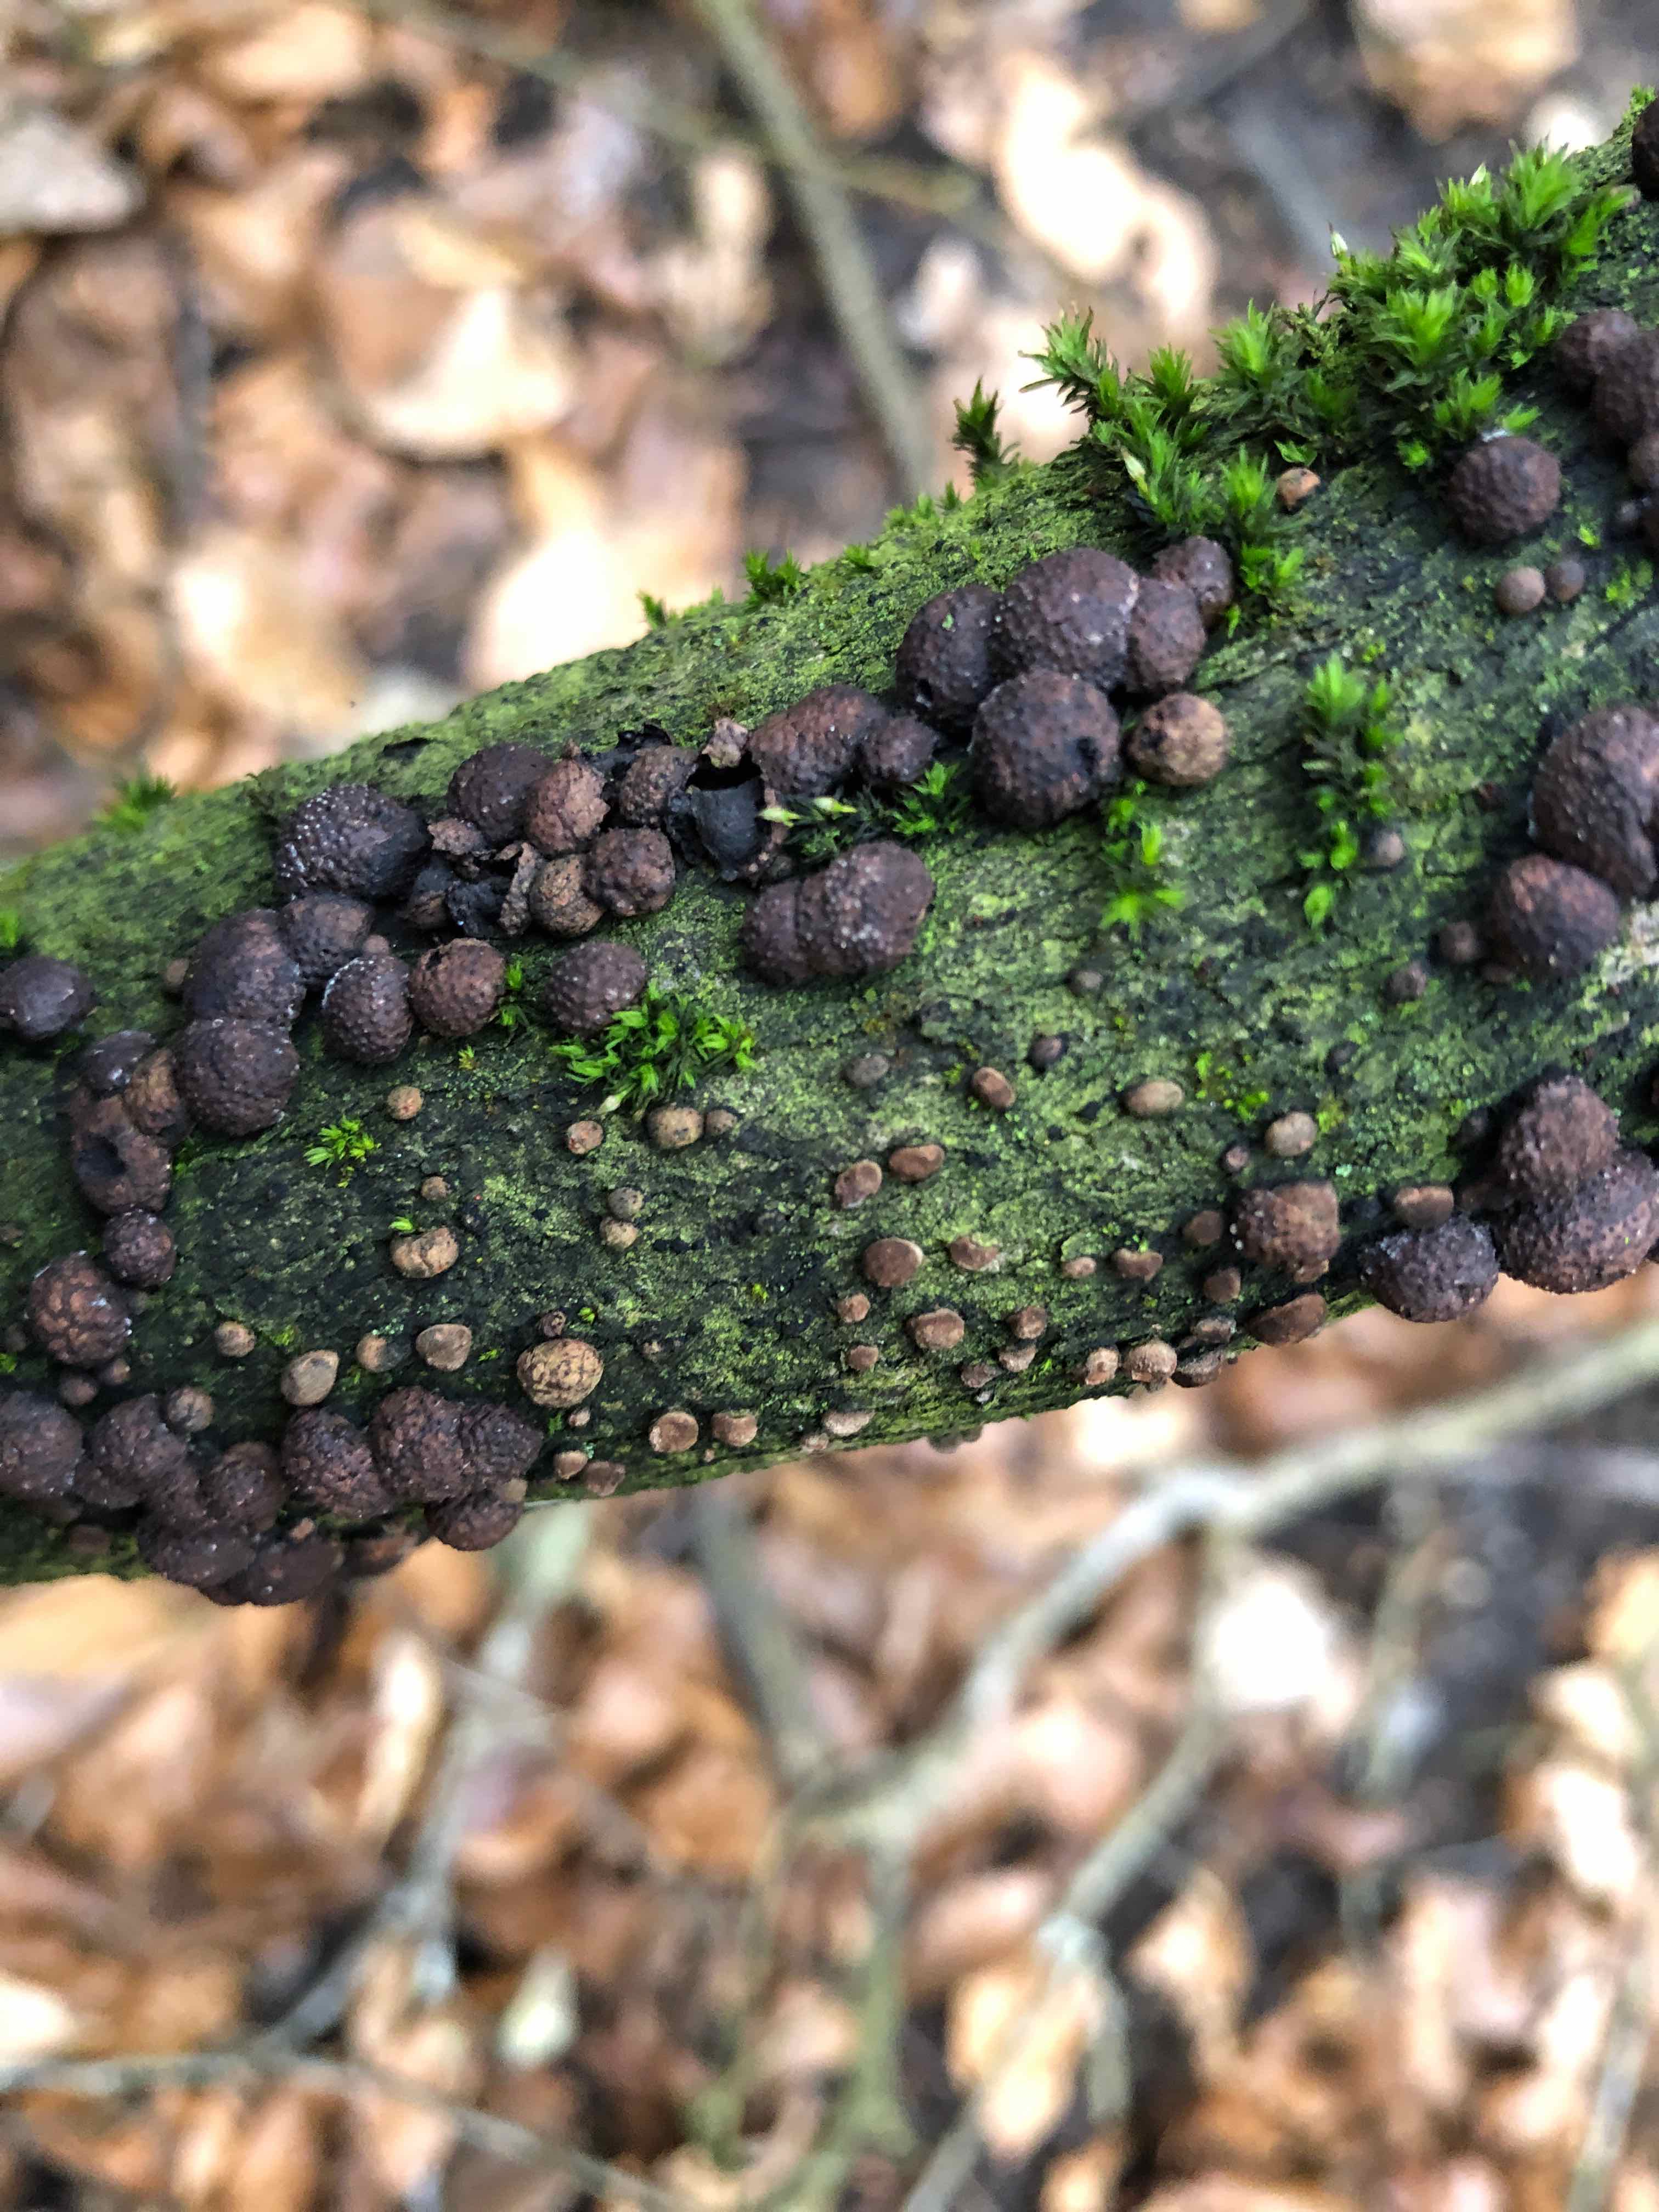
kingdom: Fungi
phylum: Ascomycota
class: Sordariomycetes
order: Xylariales
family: Hypoxylaceae
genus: Hypoxylon
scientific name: Hypoxylon fragiforme
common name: kuljordbær
